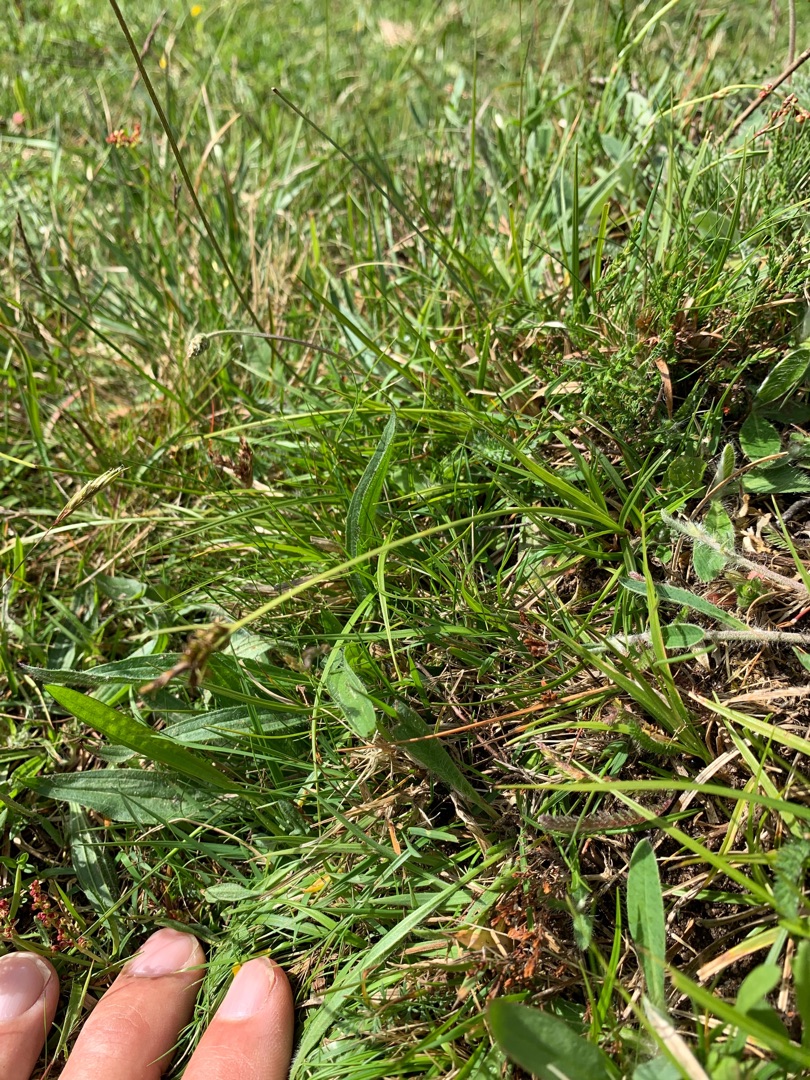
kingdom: Plantae
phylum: Tracheophyta
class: Liliopsida
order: Poales
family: Cyperaceae
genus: Carex
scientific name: Carex pilulifera
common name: Pille-star
